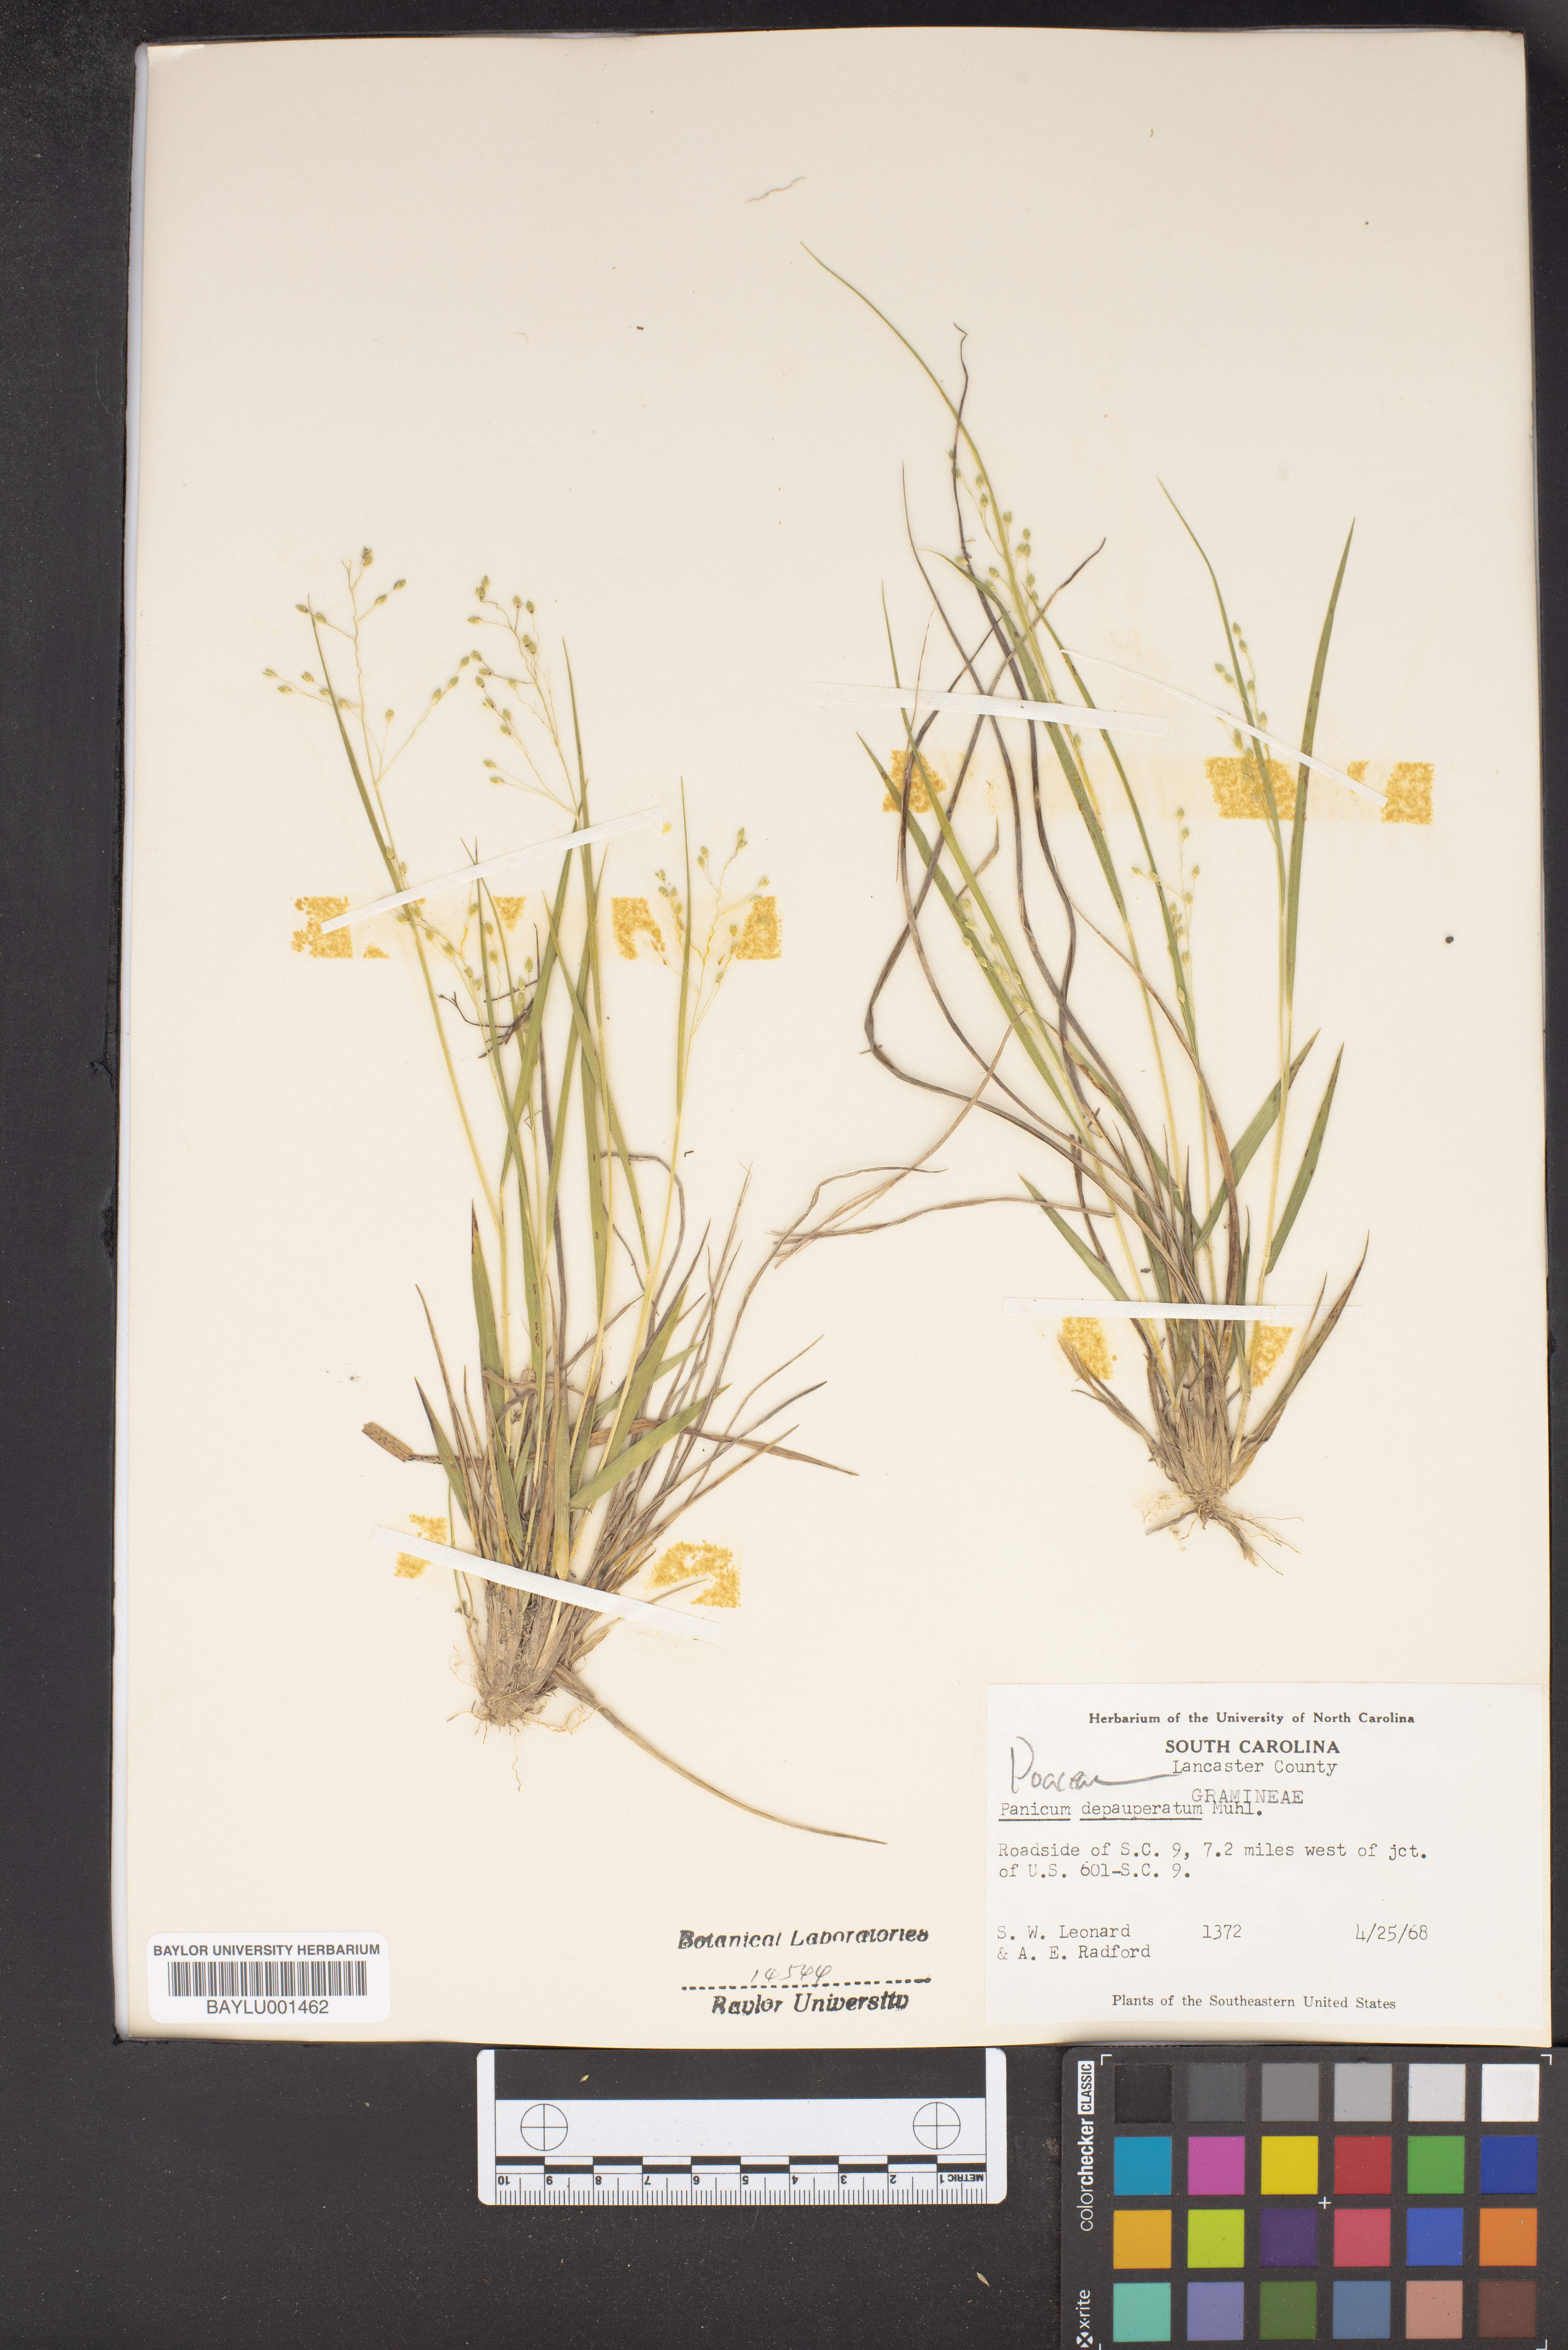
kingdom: Plantae
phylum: Tracheophyta
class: Liliopsida
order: Poales
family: Poaceae
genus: Dichanthelium
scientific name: Dichanthelium depauperatum
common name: Depauperate panicgrass
